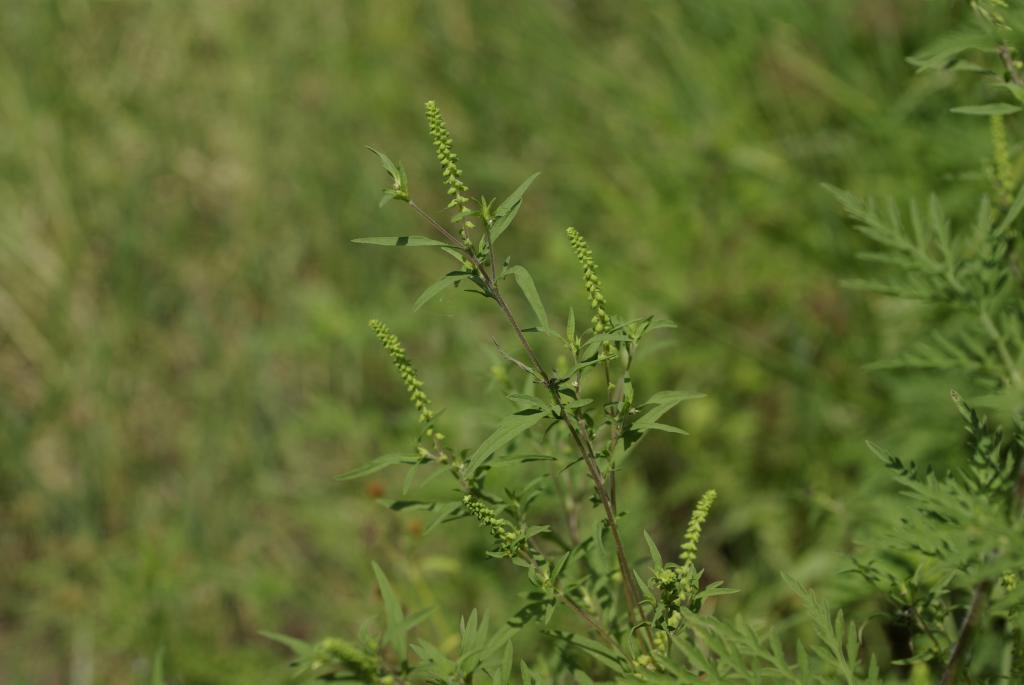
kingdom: Plantae
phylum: Tracheophyta
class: Magnoliopsida
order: Asterales
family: Asteraceae
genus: Ambrosia
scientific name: Ambrosia artemisiifolia
